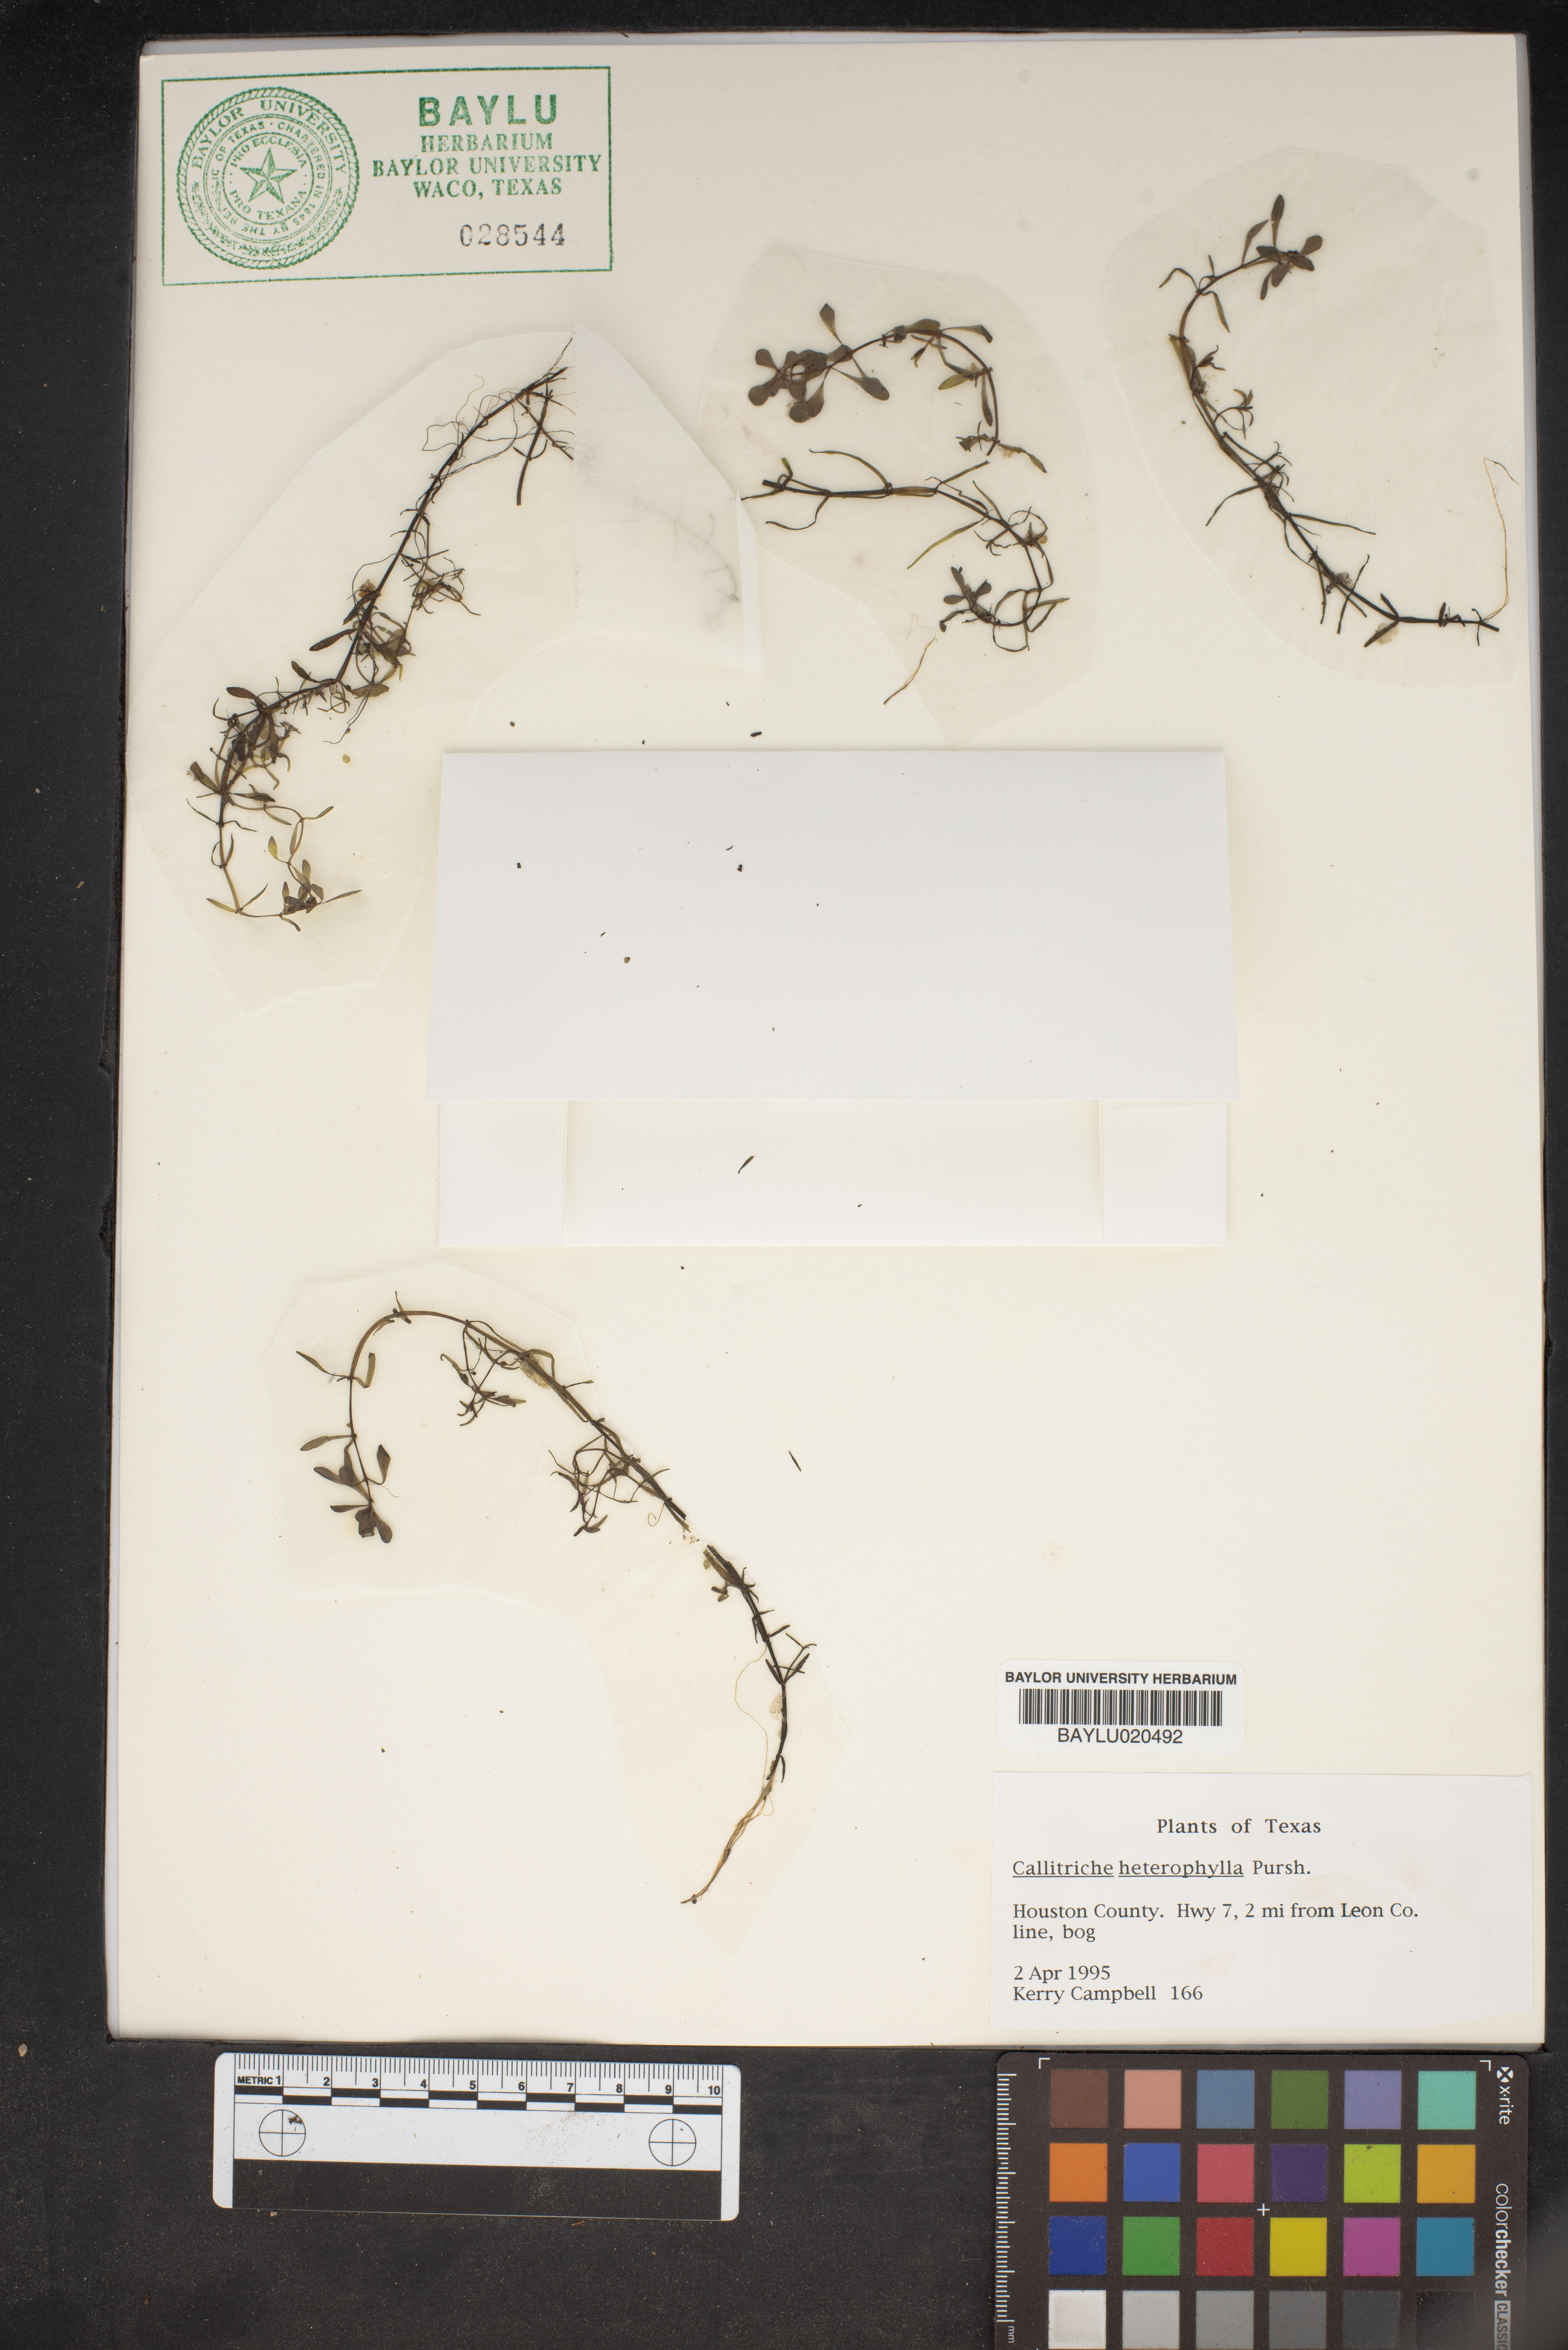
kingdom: Plantae
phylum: Tracheophyta
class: Magnoliopsida
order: Lamiales
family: Plantaginaceae
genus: Callitriche
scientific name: Callitriche heterophylla
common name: Two-headed water-starwort
